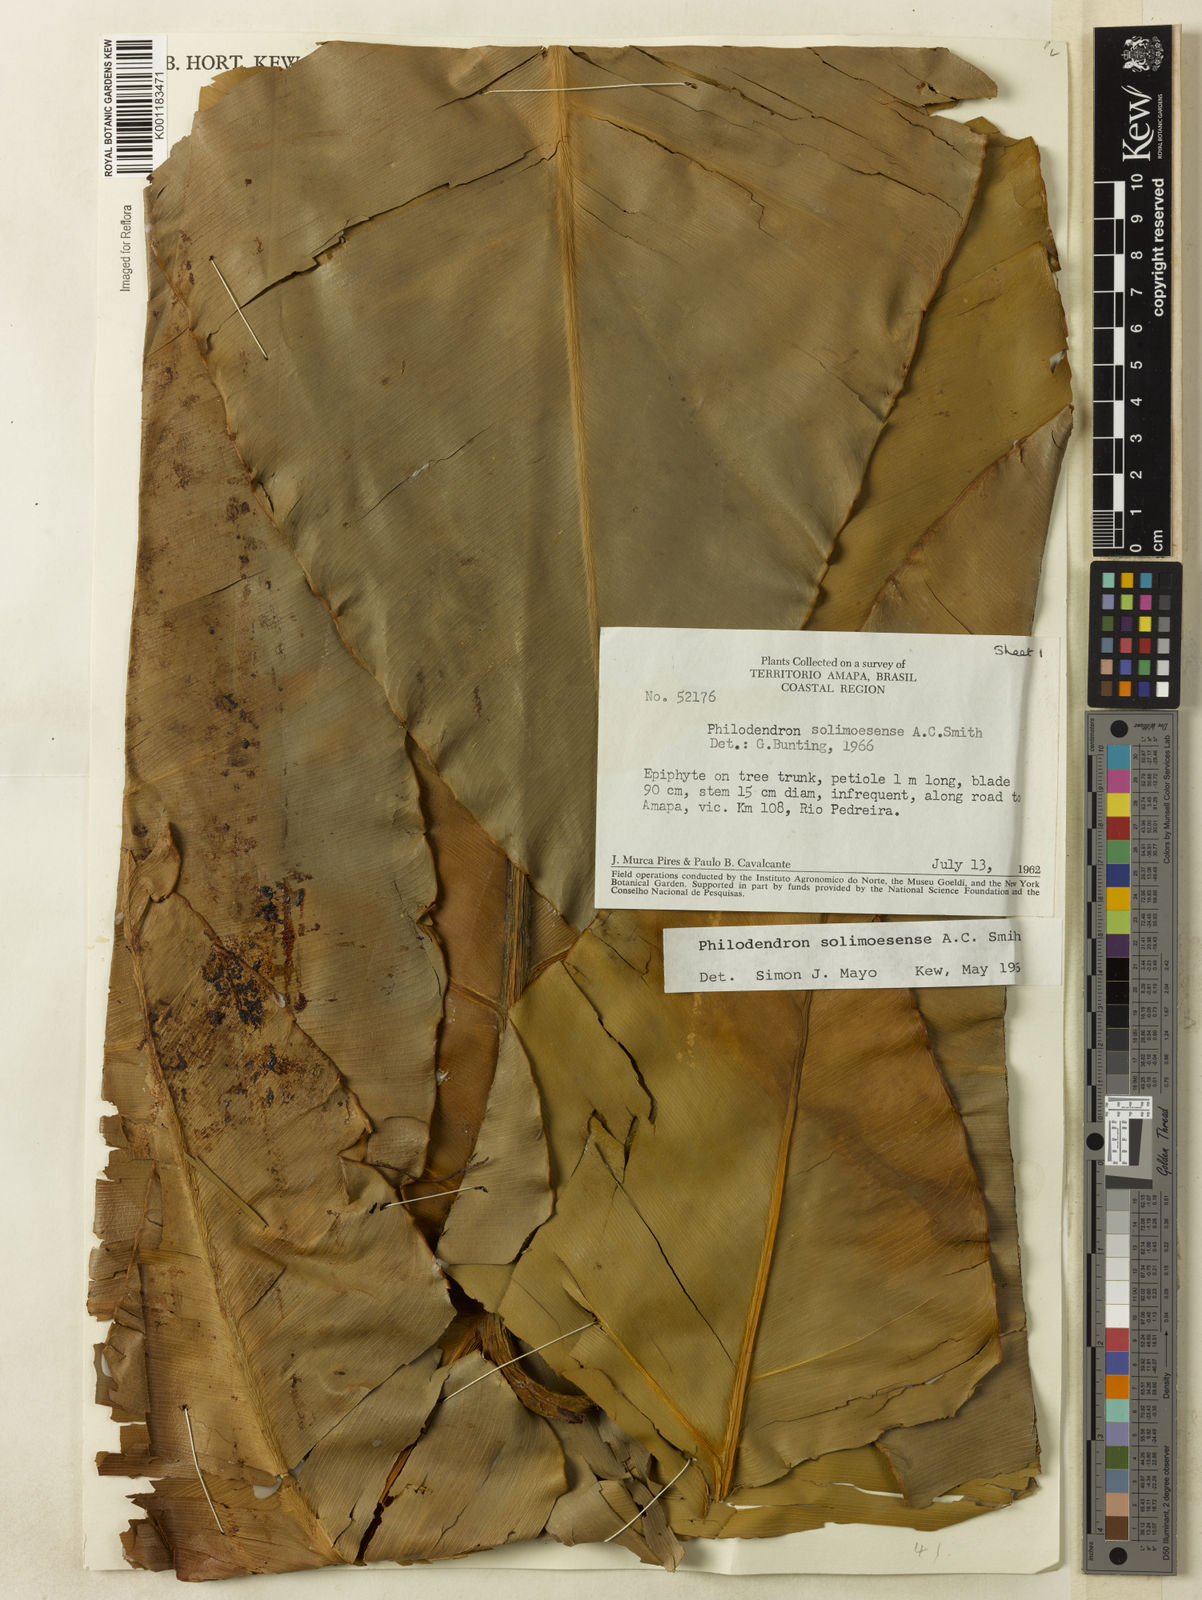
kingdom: Plantae
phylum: Tracheophyta
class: Liliopsida
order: Alismatales
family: Araceae
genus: Thaumatophyllum
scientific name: Thaumatophyllum solimoesense
